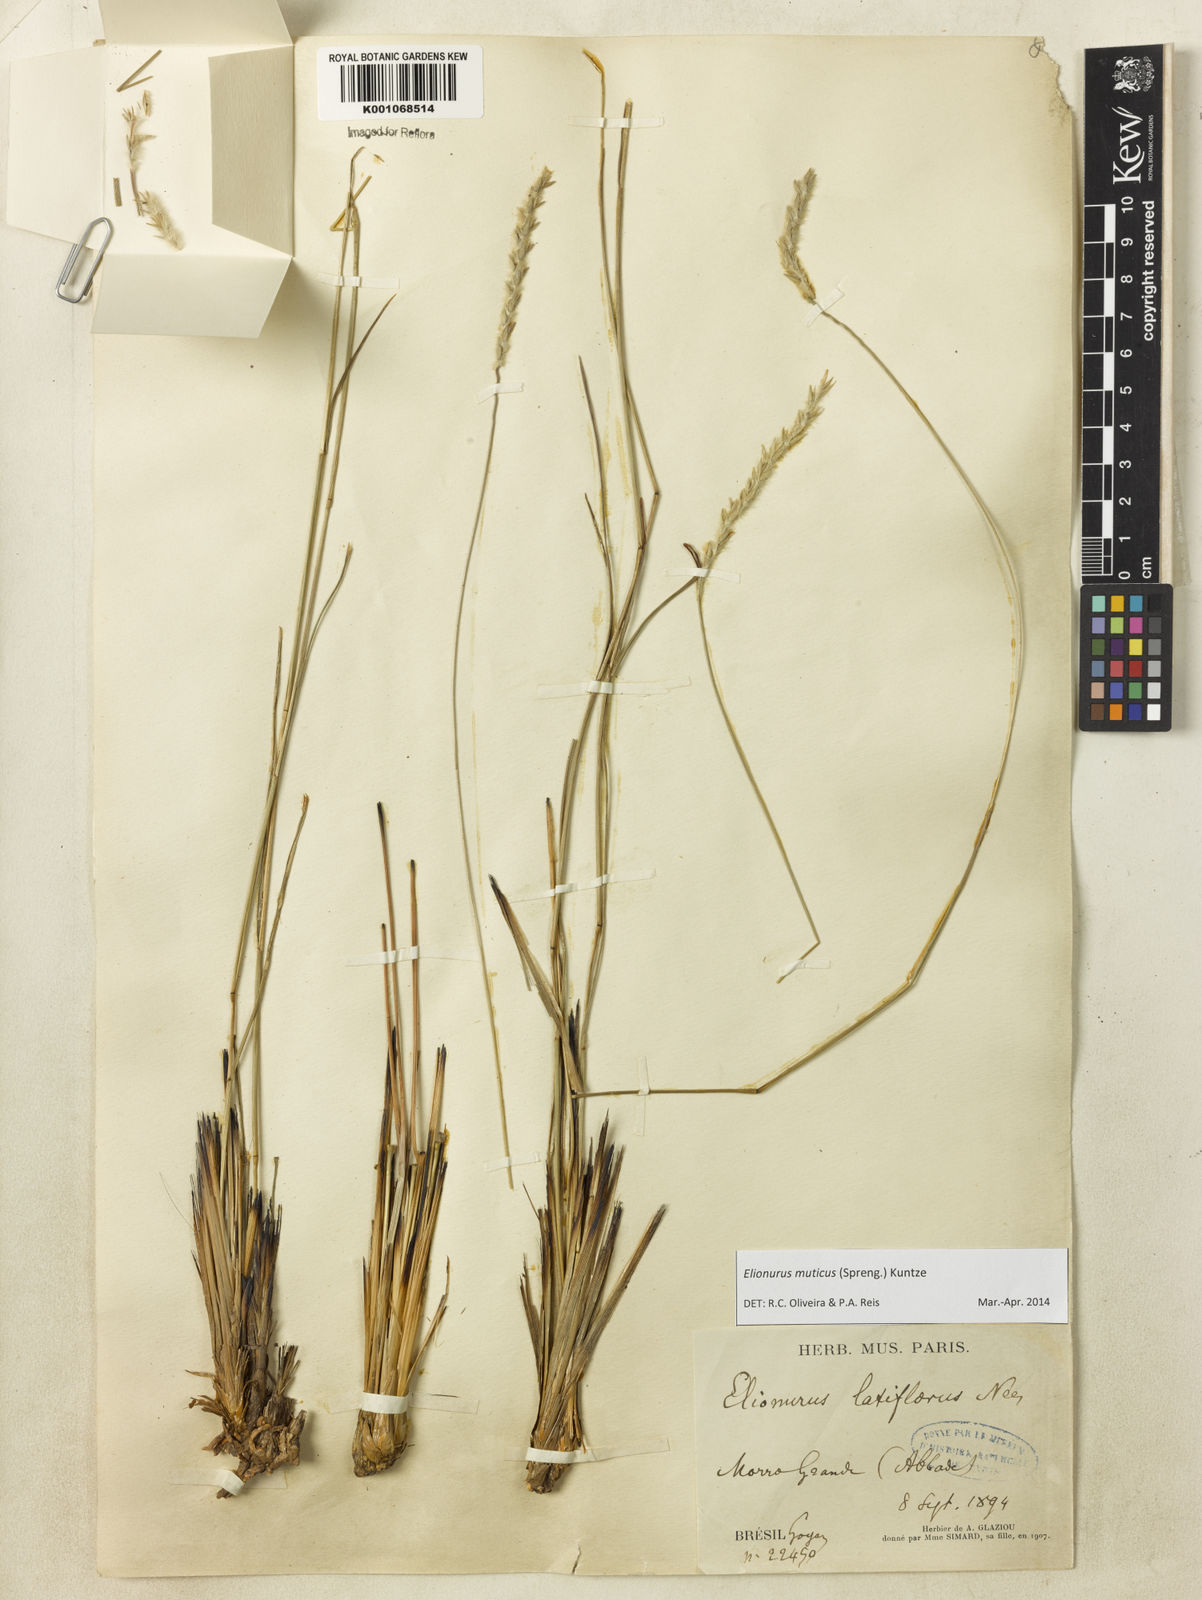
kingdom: Plantae
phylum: Tracheophyta
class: Liliopsida
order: Poales
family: Poaceae
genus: Elionurus
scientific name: Elionurus muticus
